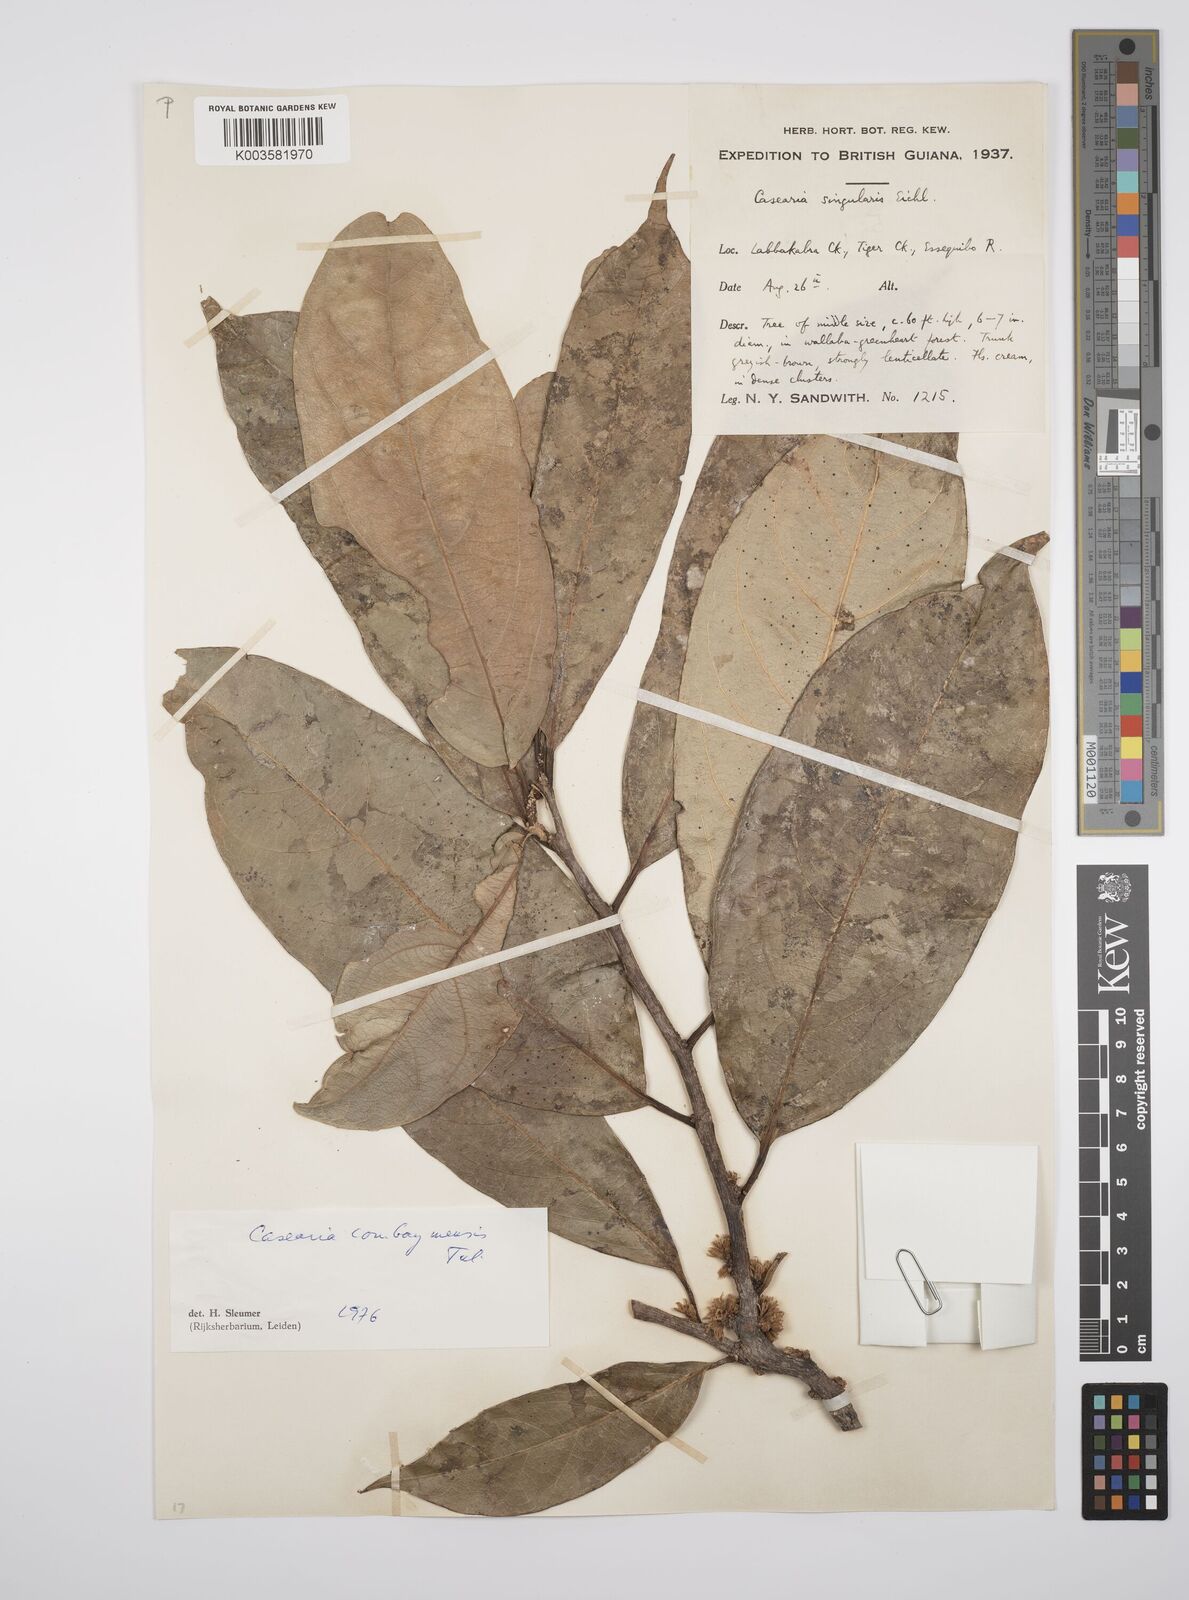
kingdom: Plantae
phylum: Tracheophyta
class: Magnoliopsida
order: Malpighiales
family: Salicaceae
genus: Casearia
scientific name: Casearia combaymensis
